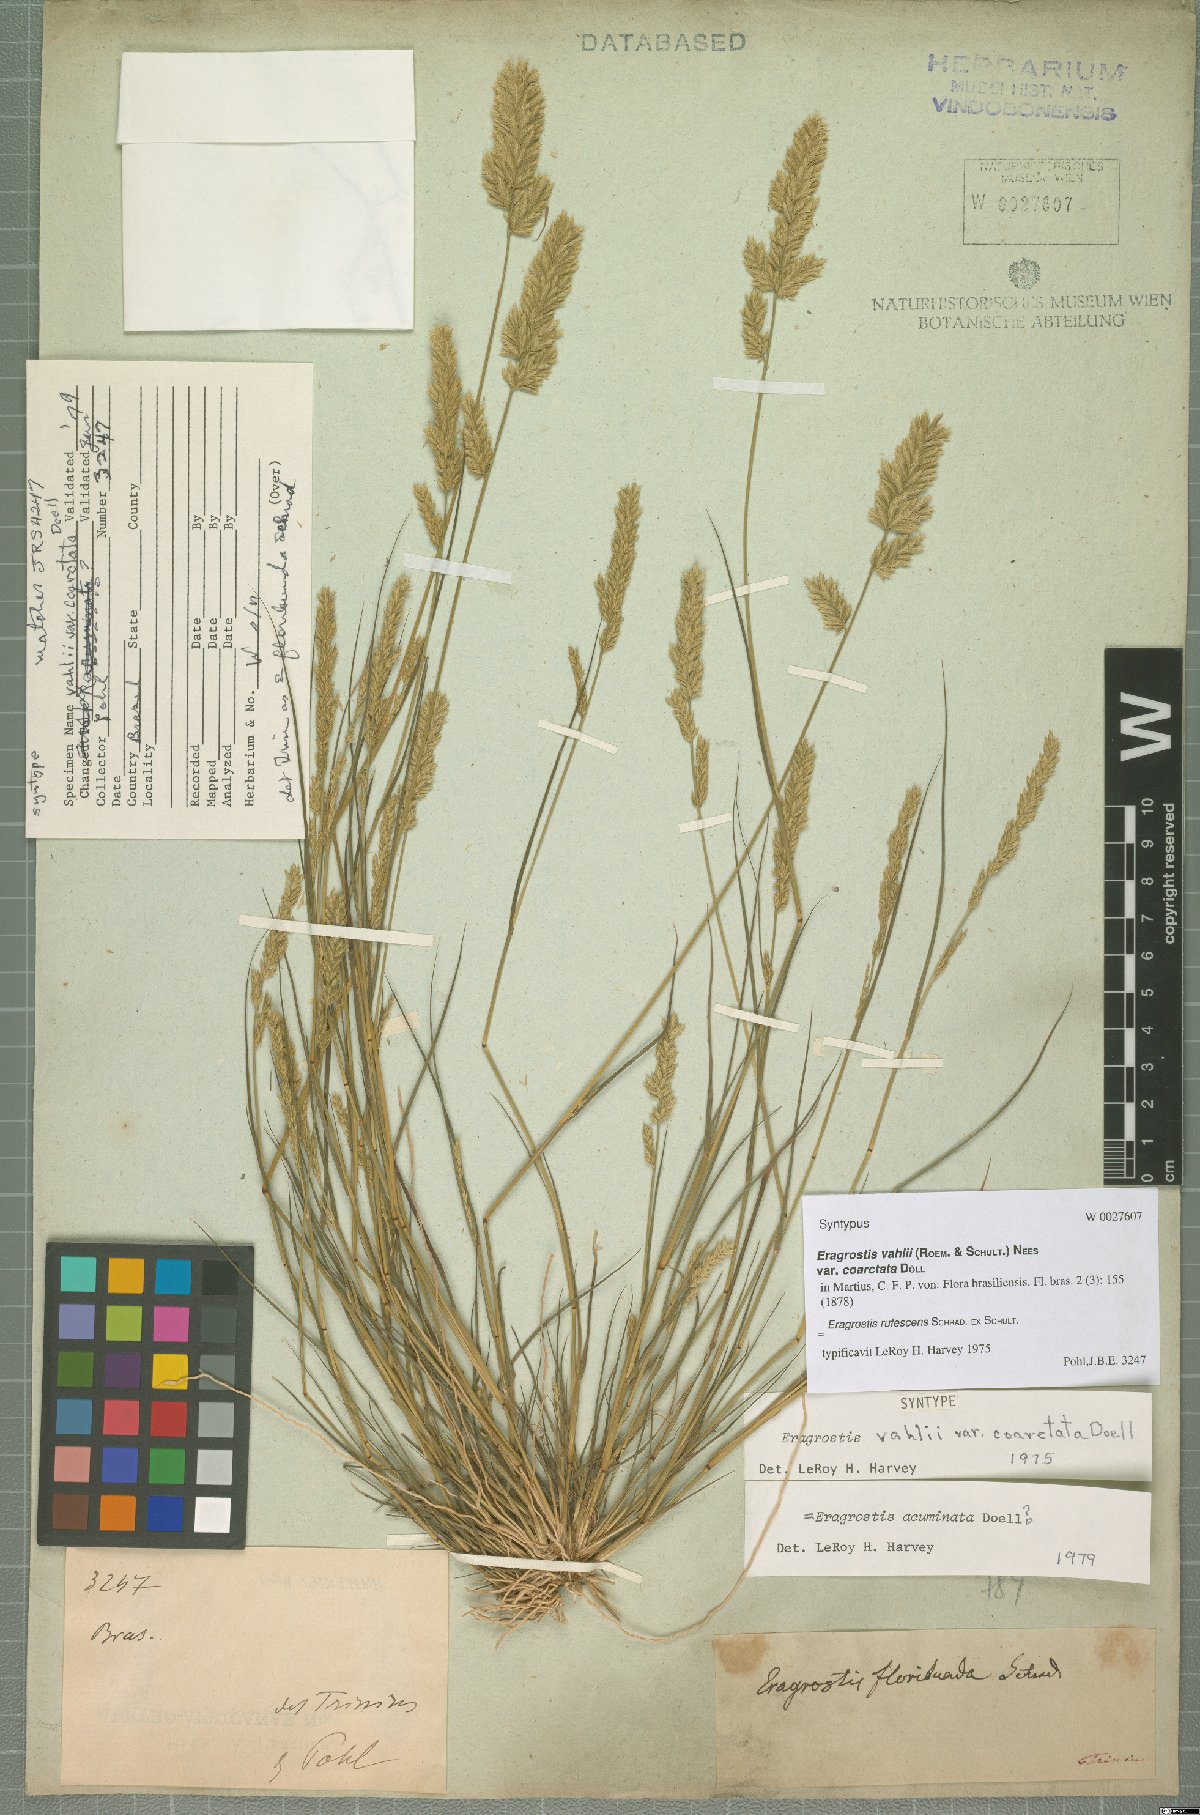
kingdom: Plantae
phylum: Tracheophyta
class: Liliopsida
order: Poales
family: Poaceae
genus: Eragrostis
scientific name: Eragrostis rufescens
